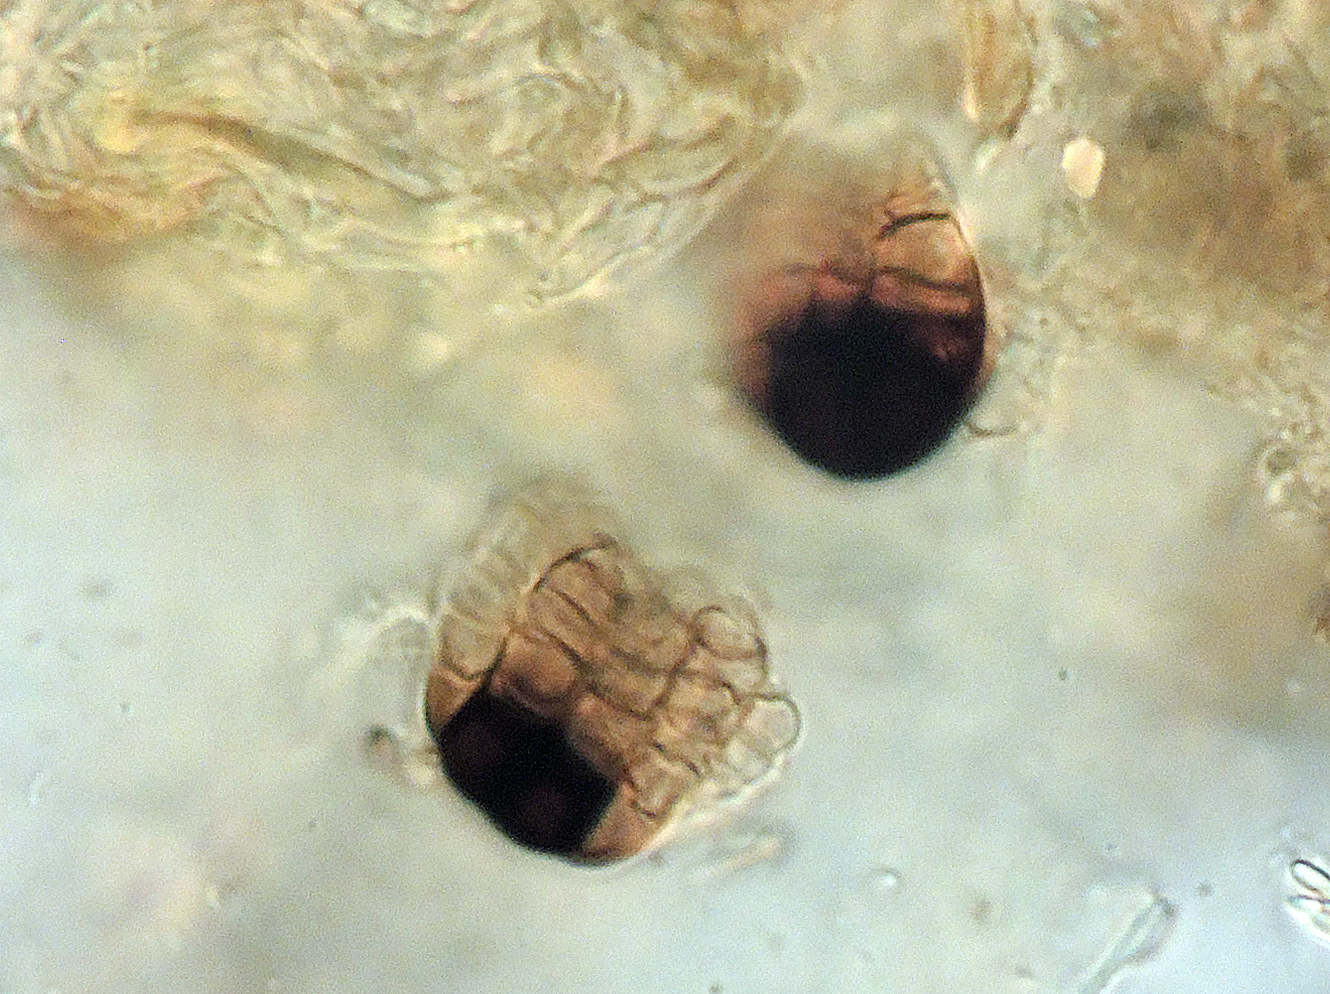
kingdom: Fungi
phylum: Ascomycota
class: Dothideomycetes
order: Pleosporales
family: Cryptocoryneaceae
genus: Cryptocoryneum
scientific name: Cryptocoryneum rilstonei
